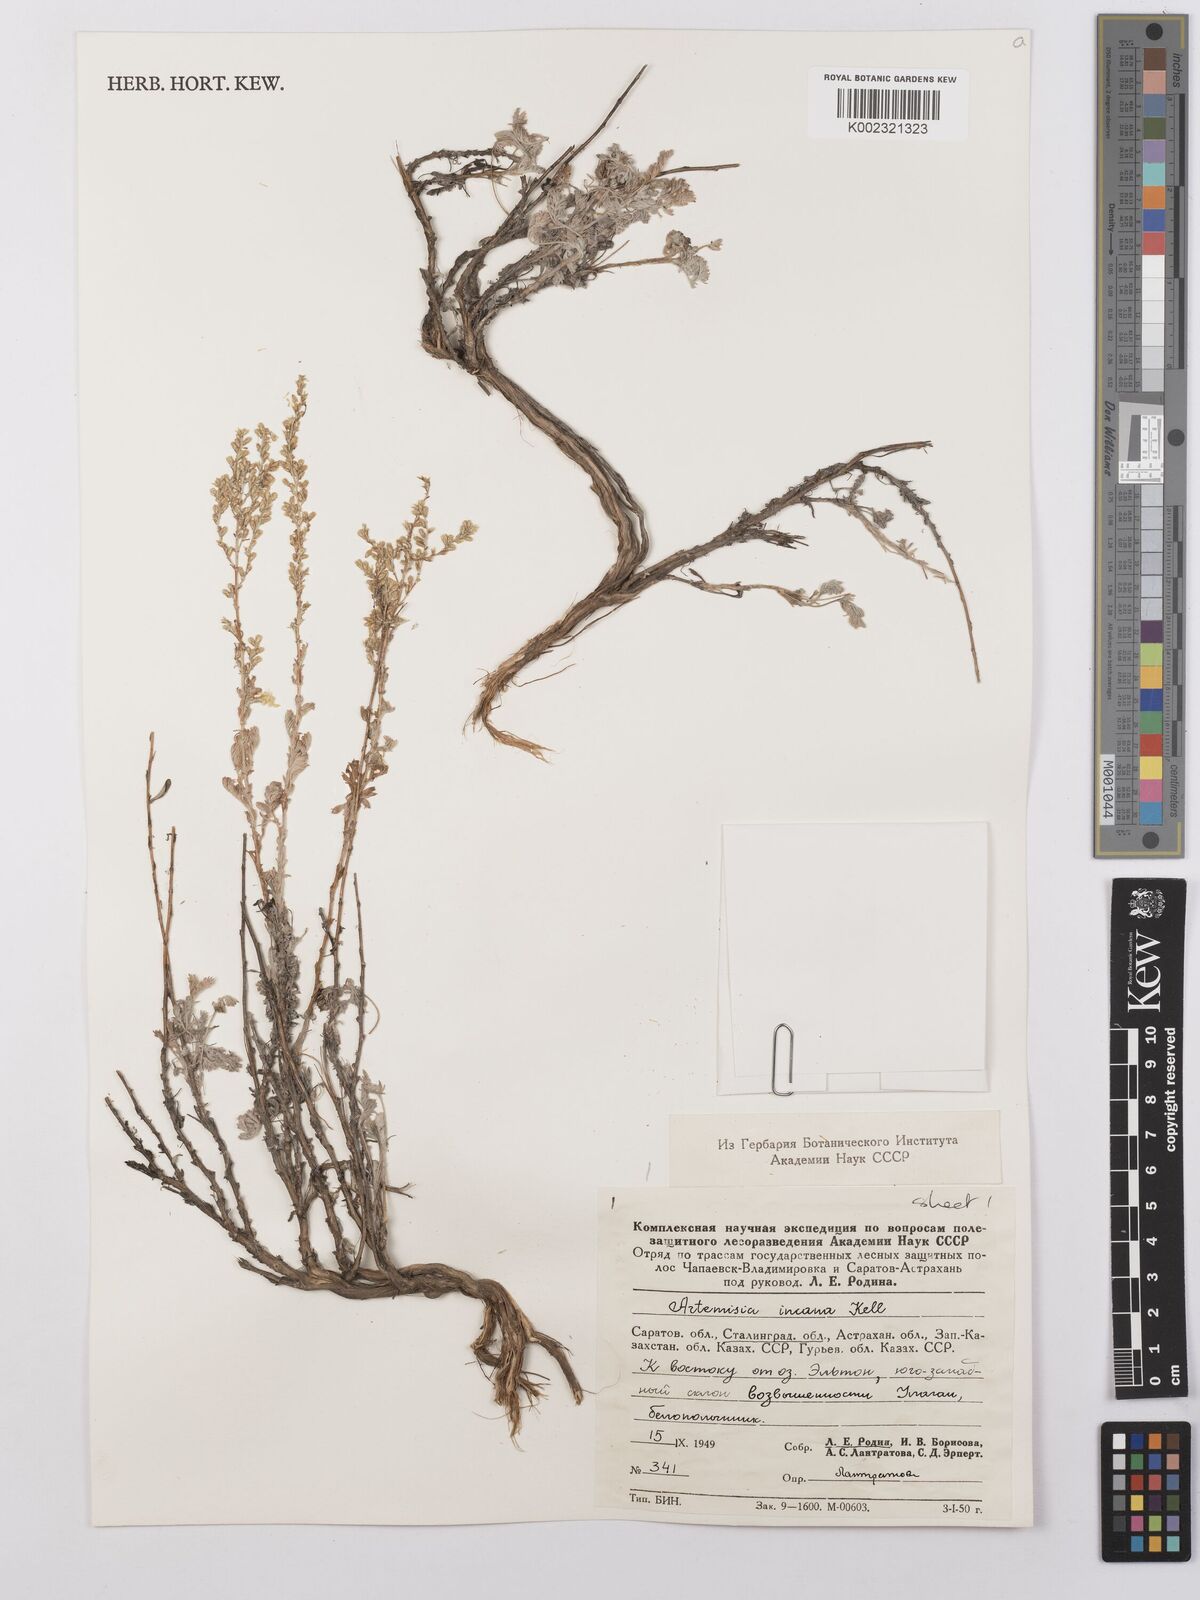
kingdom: Plantae
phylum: Tracheophyta
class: Magnoliopsida
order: Asterales
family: Asteraceae
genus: Artemisia
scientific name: Artemisia taurica
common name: Tauric wormwood
